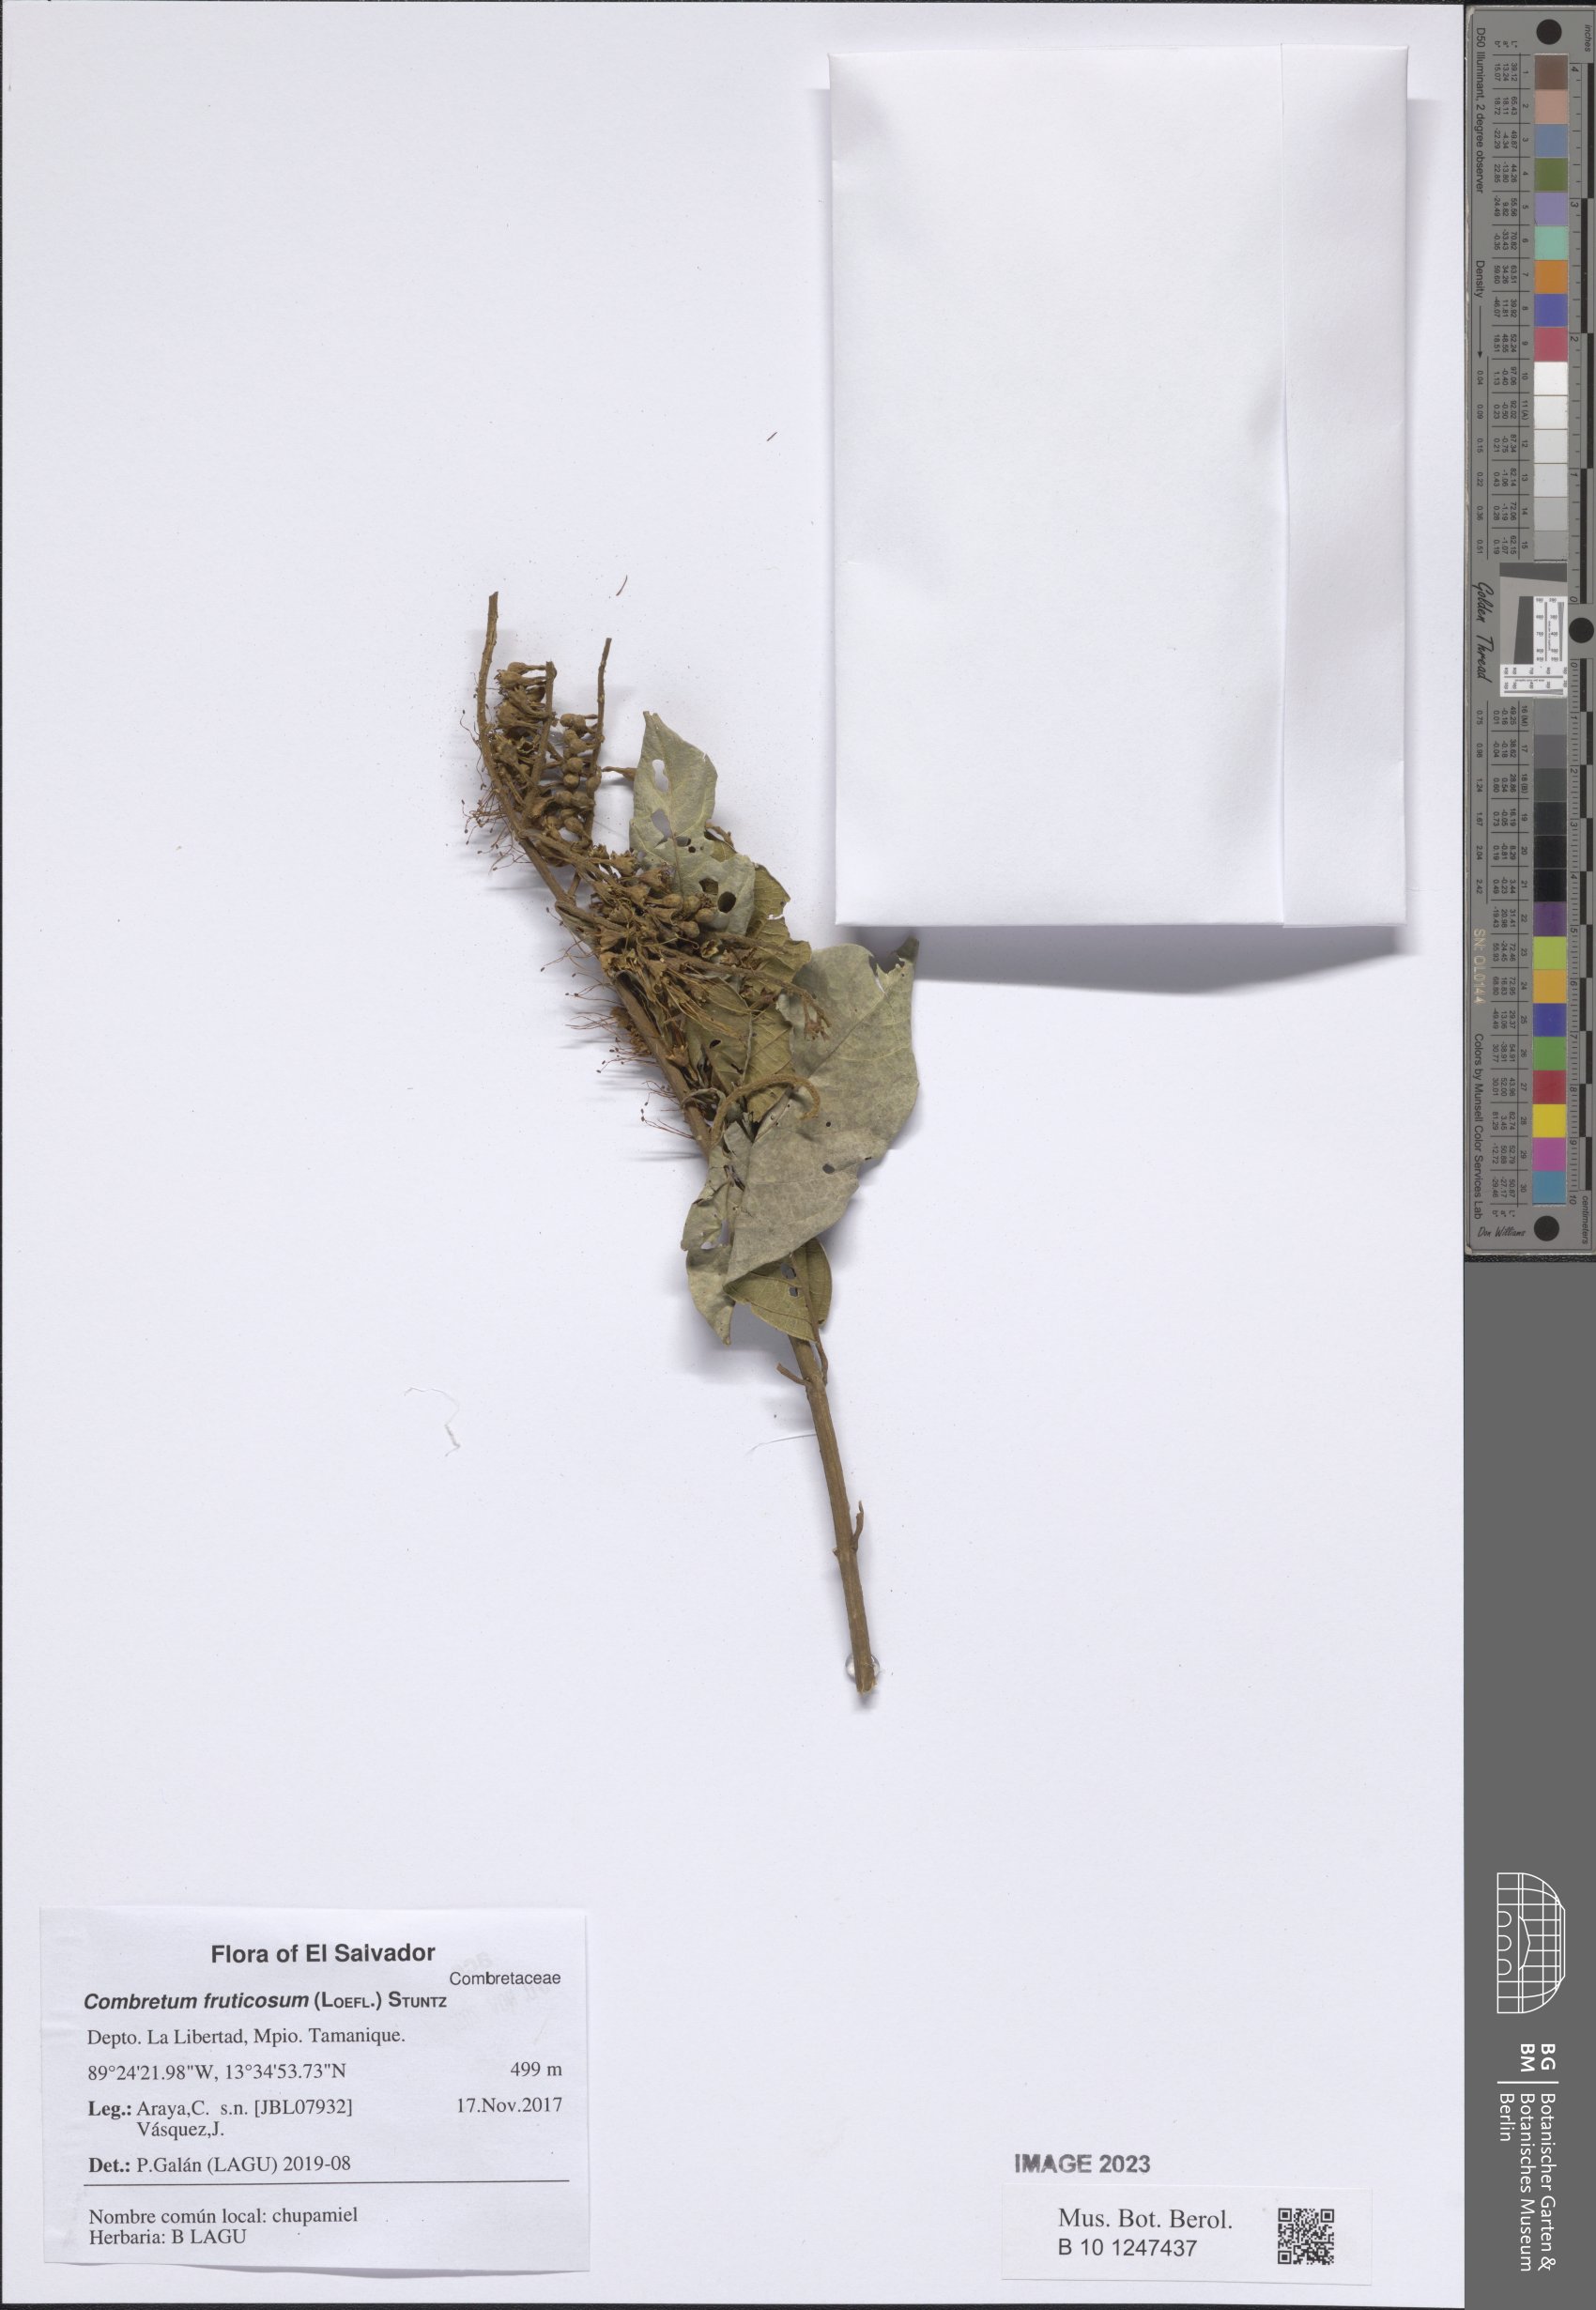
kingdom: Plantae
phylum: Tracheophyta
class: Magnoliopsida
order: Myrtales
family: Combretaceae
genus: Combretum
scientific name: Combretum fruticosum
